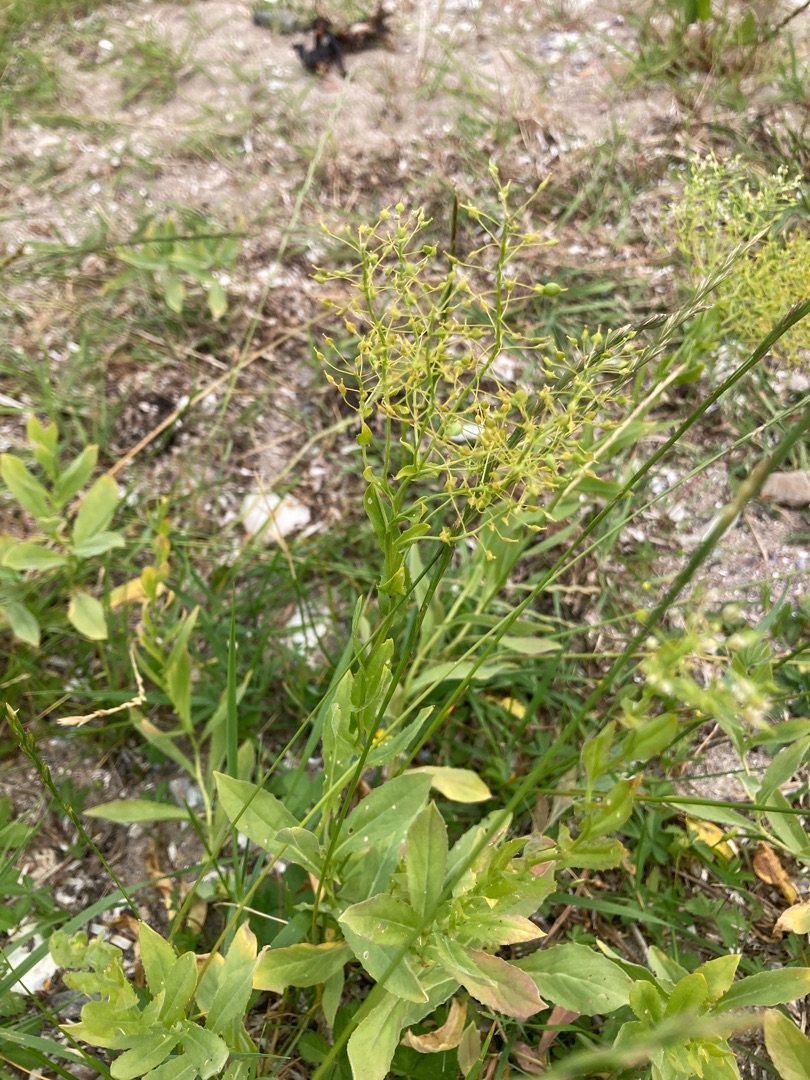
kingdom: Plantae
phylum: Tracheophyta
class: Magnoliopsida
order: Brassicales
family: Brassicaceae
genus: Lepidium
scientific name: Lepidium draba
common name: Hjerte-karse
